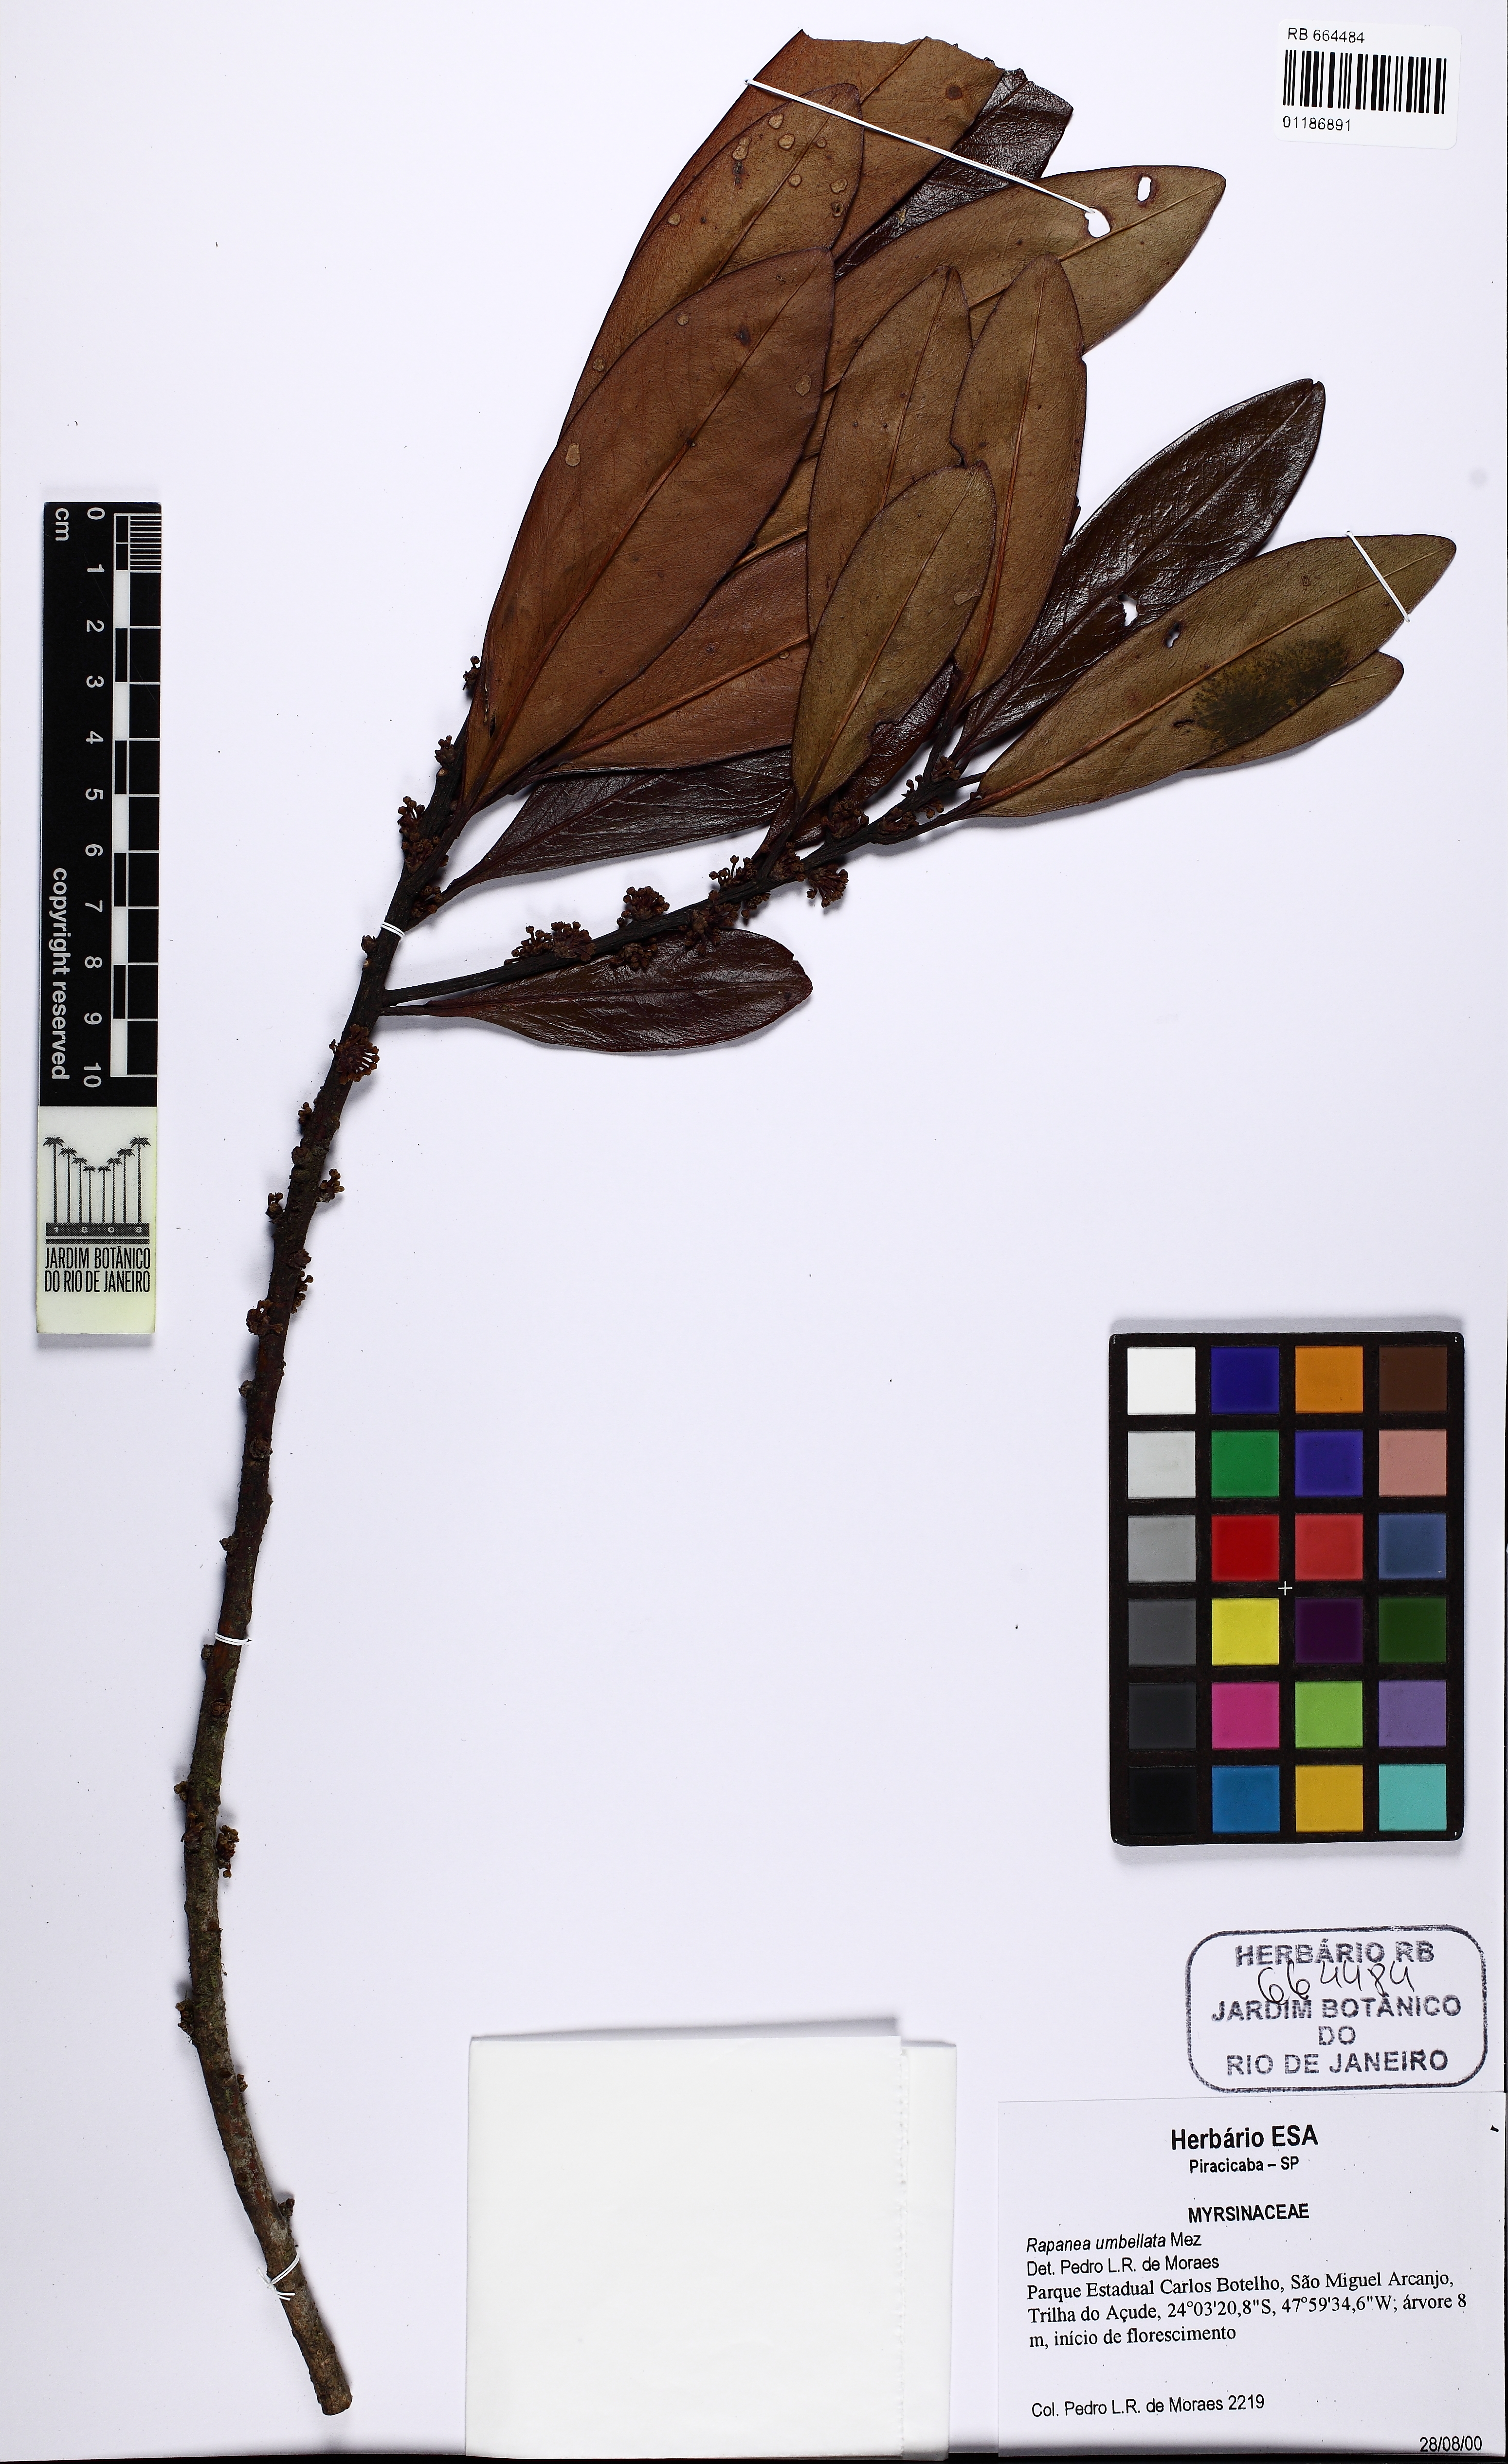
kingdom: Plantae
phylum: Tracheophyta
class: Magnoliopsida
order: Ericales
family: Primulaceae
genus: Myrsine
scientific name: Myrsine umbellata
